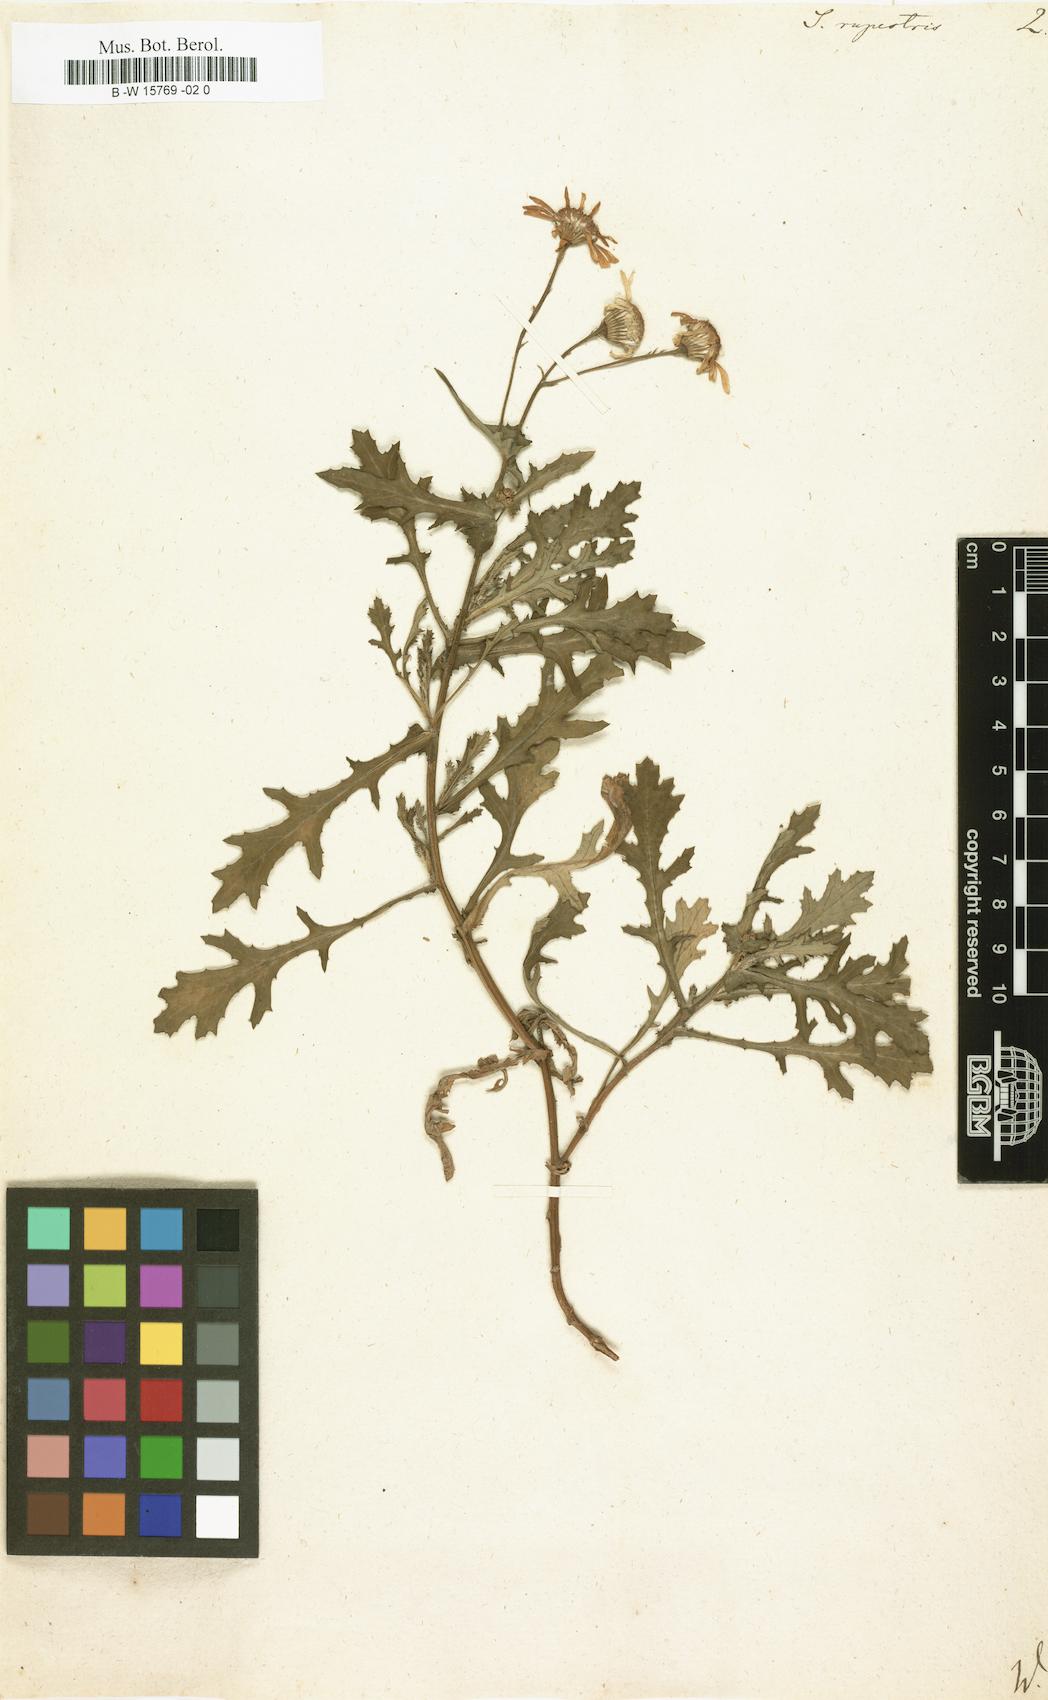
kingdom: Plantae
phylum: Tracheophyta
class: Magnoliopsida
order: Asterales
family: Asteraceae
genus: Senecio
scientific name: Senecio rupestris
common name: Rock ragwort
